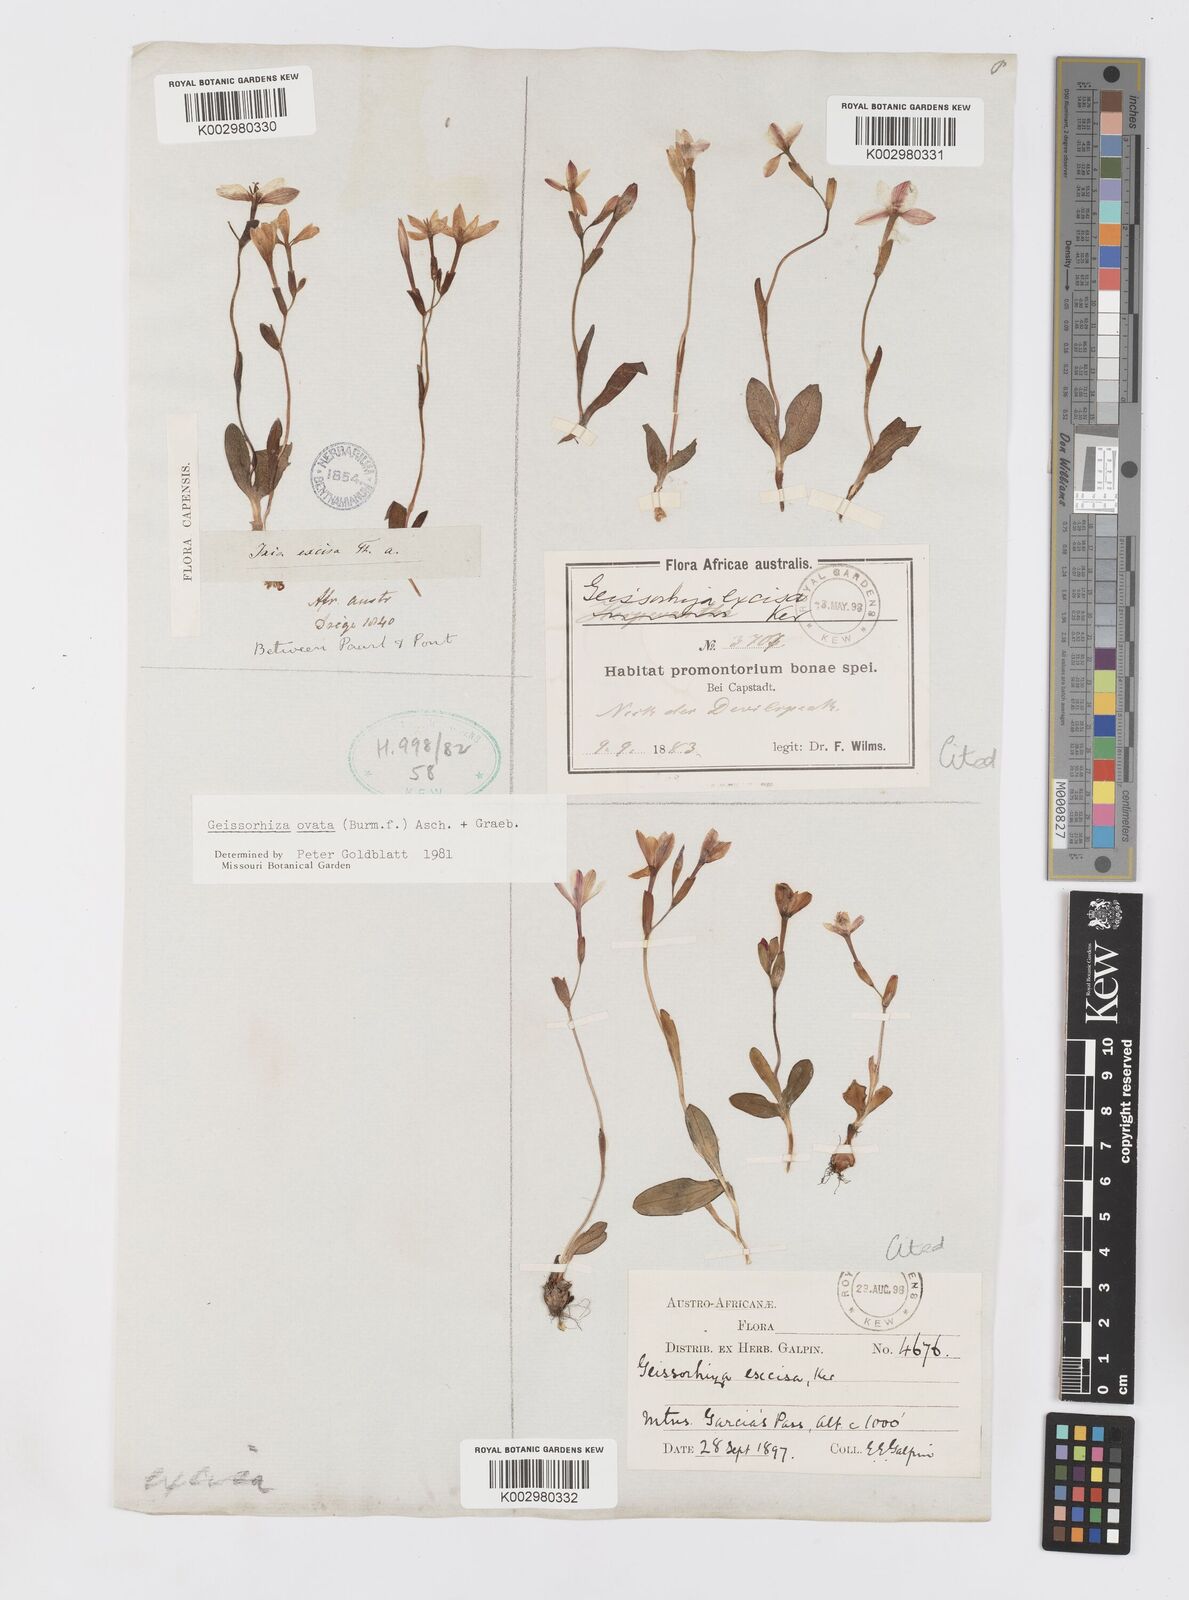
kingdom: Plantae
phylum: Tracheophyta
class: Liliopsida
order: Asparagales
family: Iridaceae
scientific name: Iridaceae
